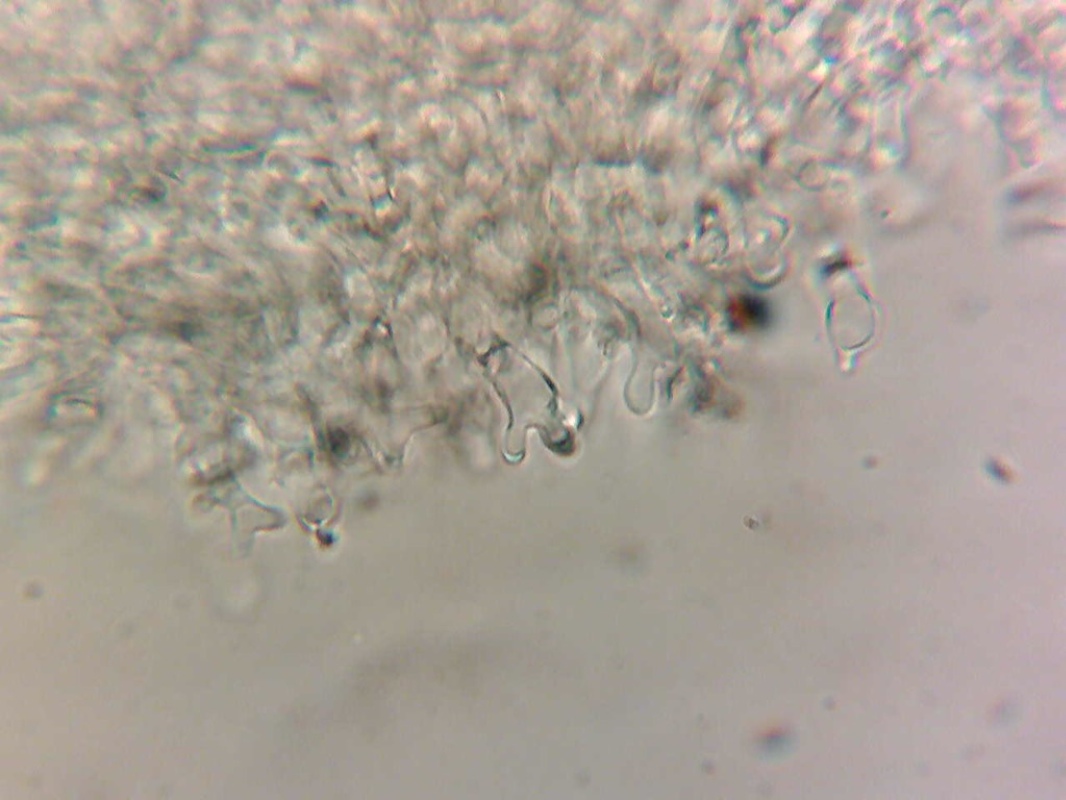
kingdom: Fungi
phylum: Basidiomycota
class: Agaricomycetes
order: Agaricales
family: Omphalotaceae
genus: Gymnopus
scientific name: Gymnopus erythropus
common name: rødstokket fladhat
